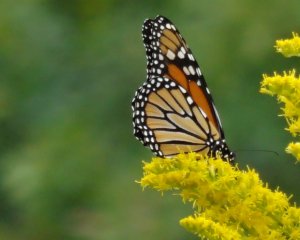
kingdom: Animalia
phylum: Arthropoda
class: Insecta
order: Lepidoptera
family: Nymphalidae
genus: Danaus
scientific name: Danaus plexippus
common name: Monarch
